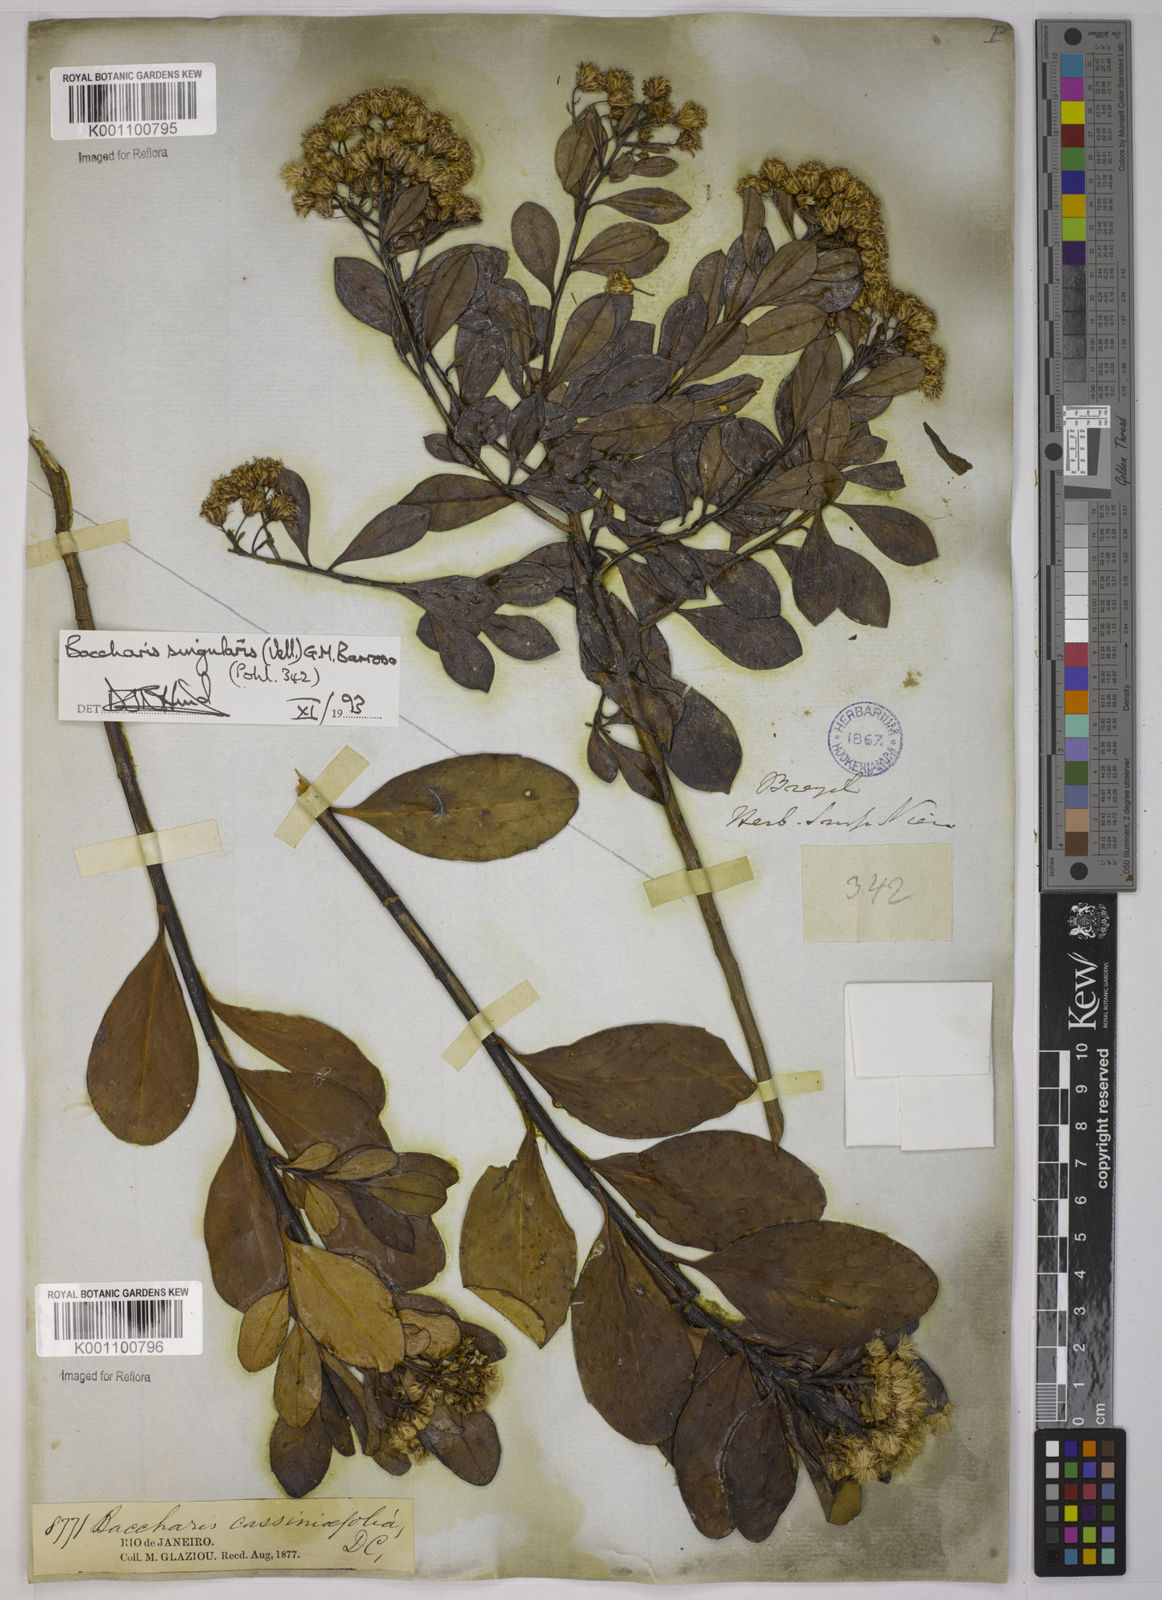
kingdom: Plantae
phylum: Tracheophyta
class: Magnoliopsida
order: Asterales
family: Asteraceae
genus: Baccharis
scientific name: Baccharis
